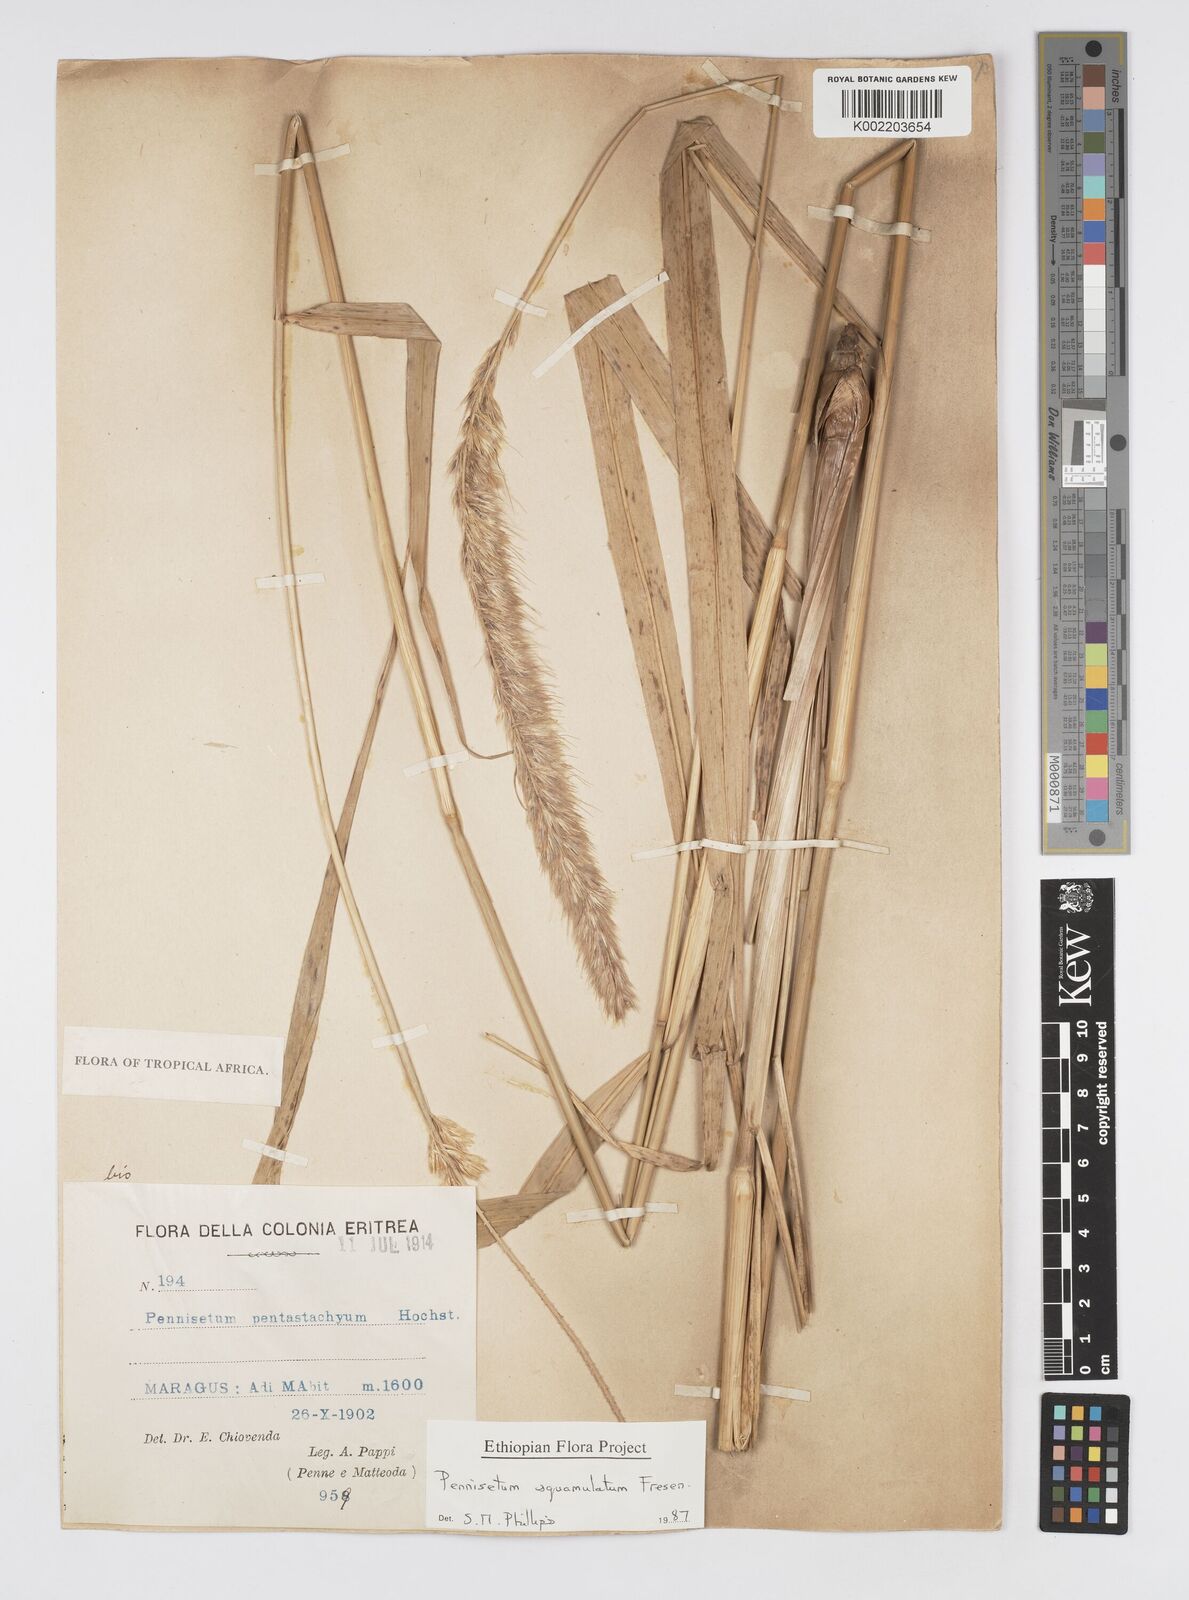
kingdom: Plantae
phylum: Tracheophyta
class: Liliopsida
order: Poales
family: Poaceae
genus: Cenchrus
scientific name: Cenchrus squamulatus
